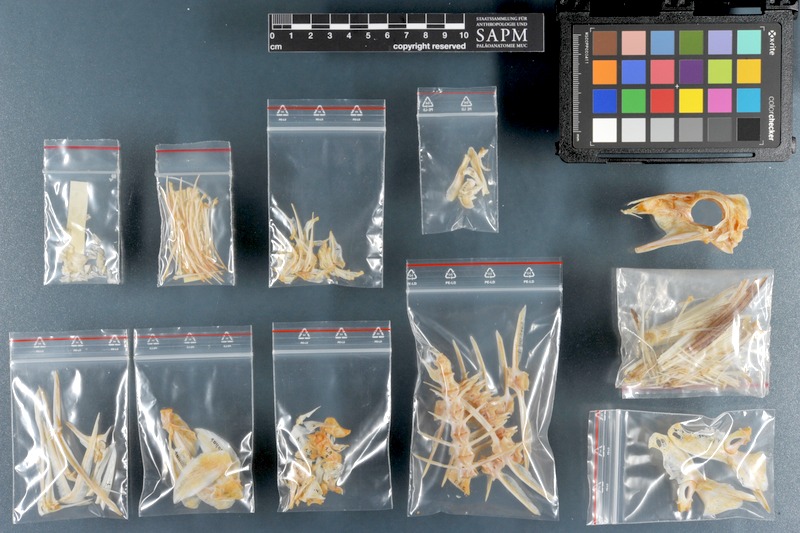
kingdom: Animalia
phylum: Chordata
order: Perciformes
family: Acanthuridae
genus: Acanthurus
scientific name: Acanthurus sohal
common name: Red sea surgeonfish
